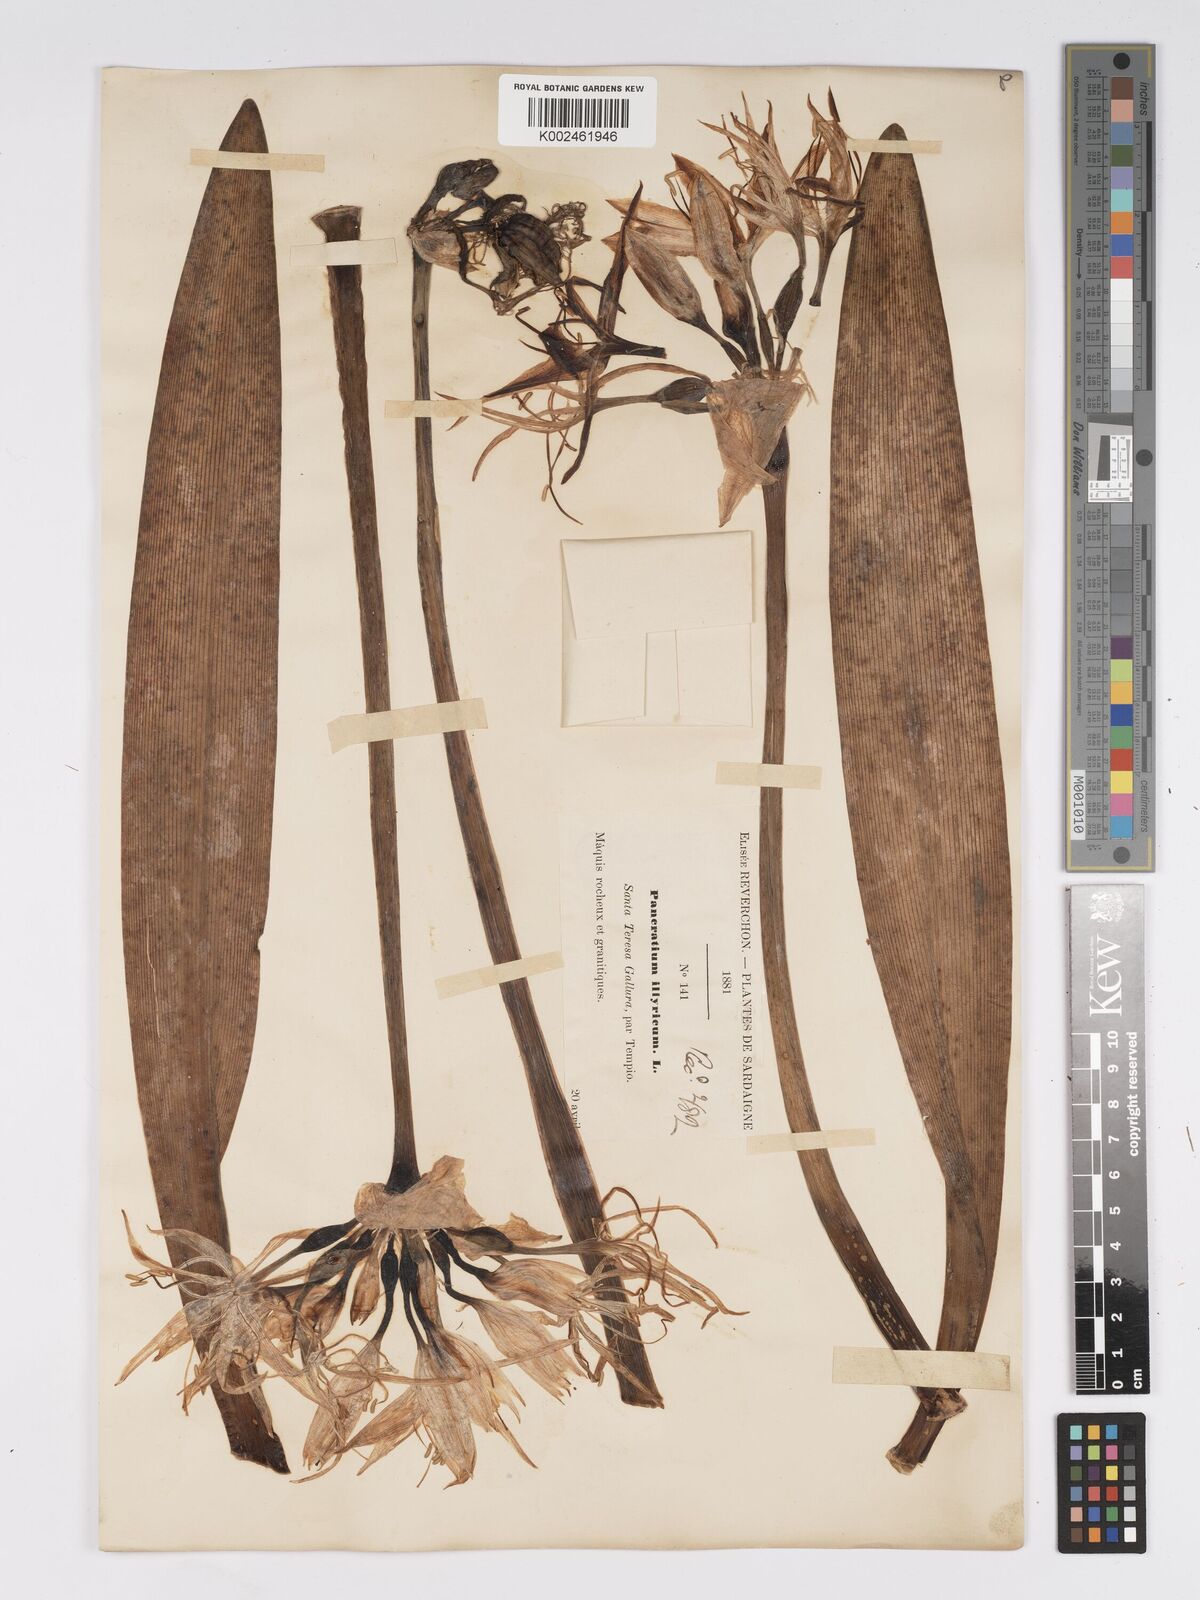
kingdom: Plantae
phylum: Tracheophyta
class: Liliopsida
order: Asparagales
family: Amaryllidaceae
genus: Pancratium
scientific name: Pancratium illyricum
